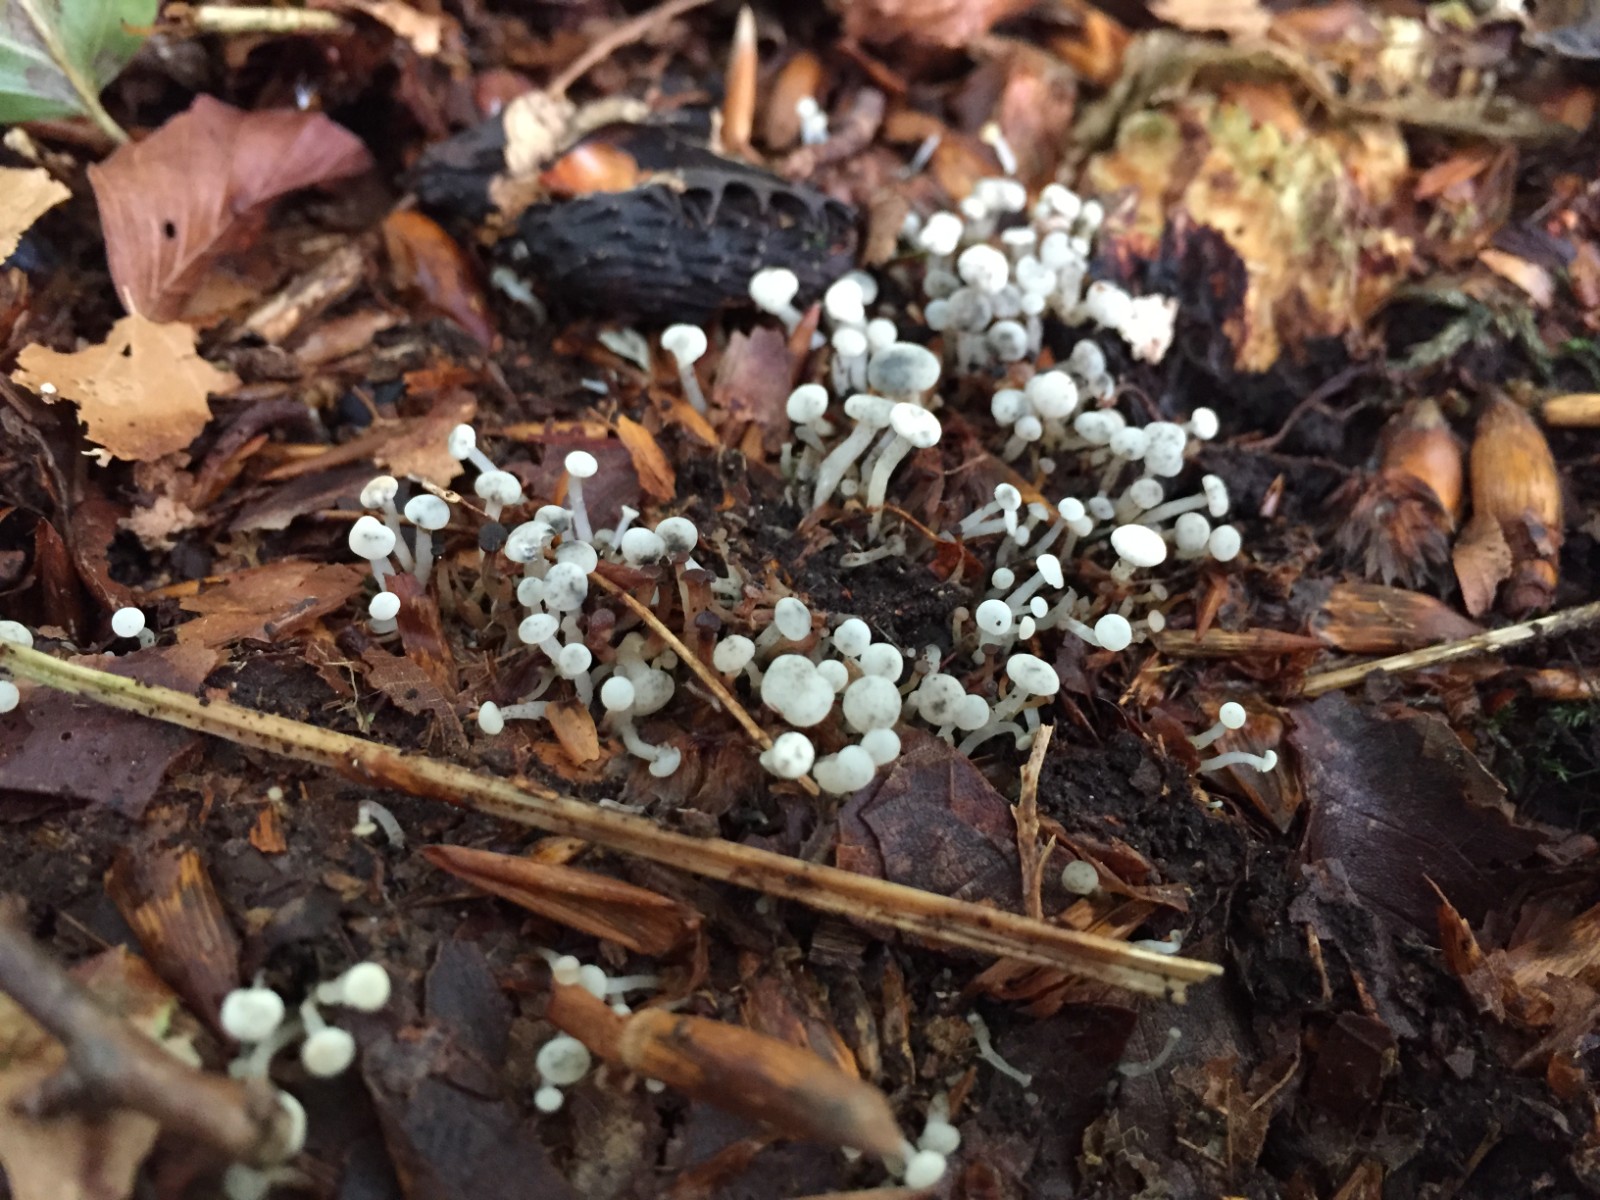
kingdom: Fungi
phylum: Ascomycota
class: Leotiomycetes
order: Helotiales
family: Tricladiaceae
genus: Cudoniella
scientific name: Cudoniella acicularis
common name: ege-dyndskive
